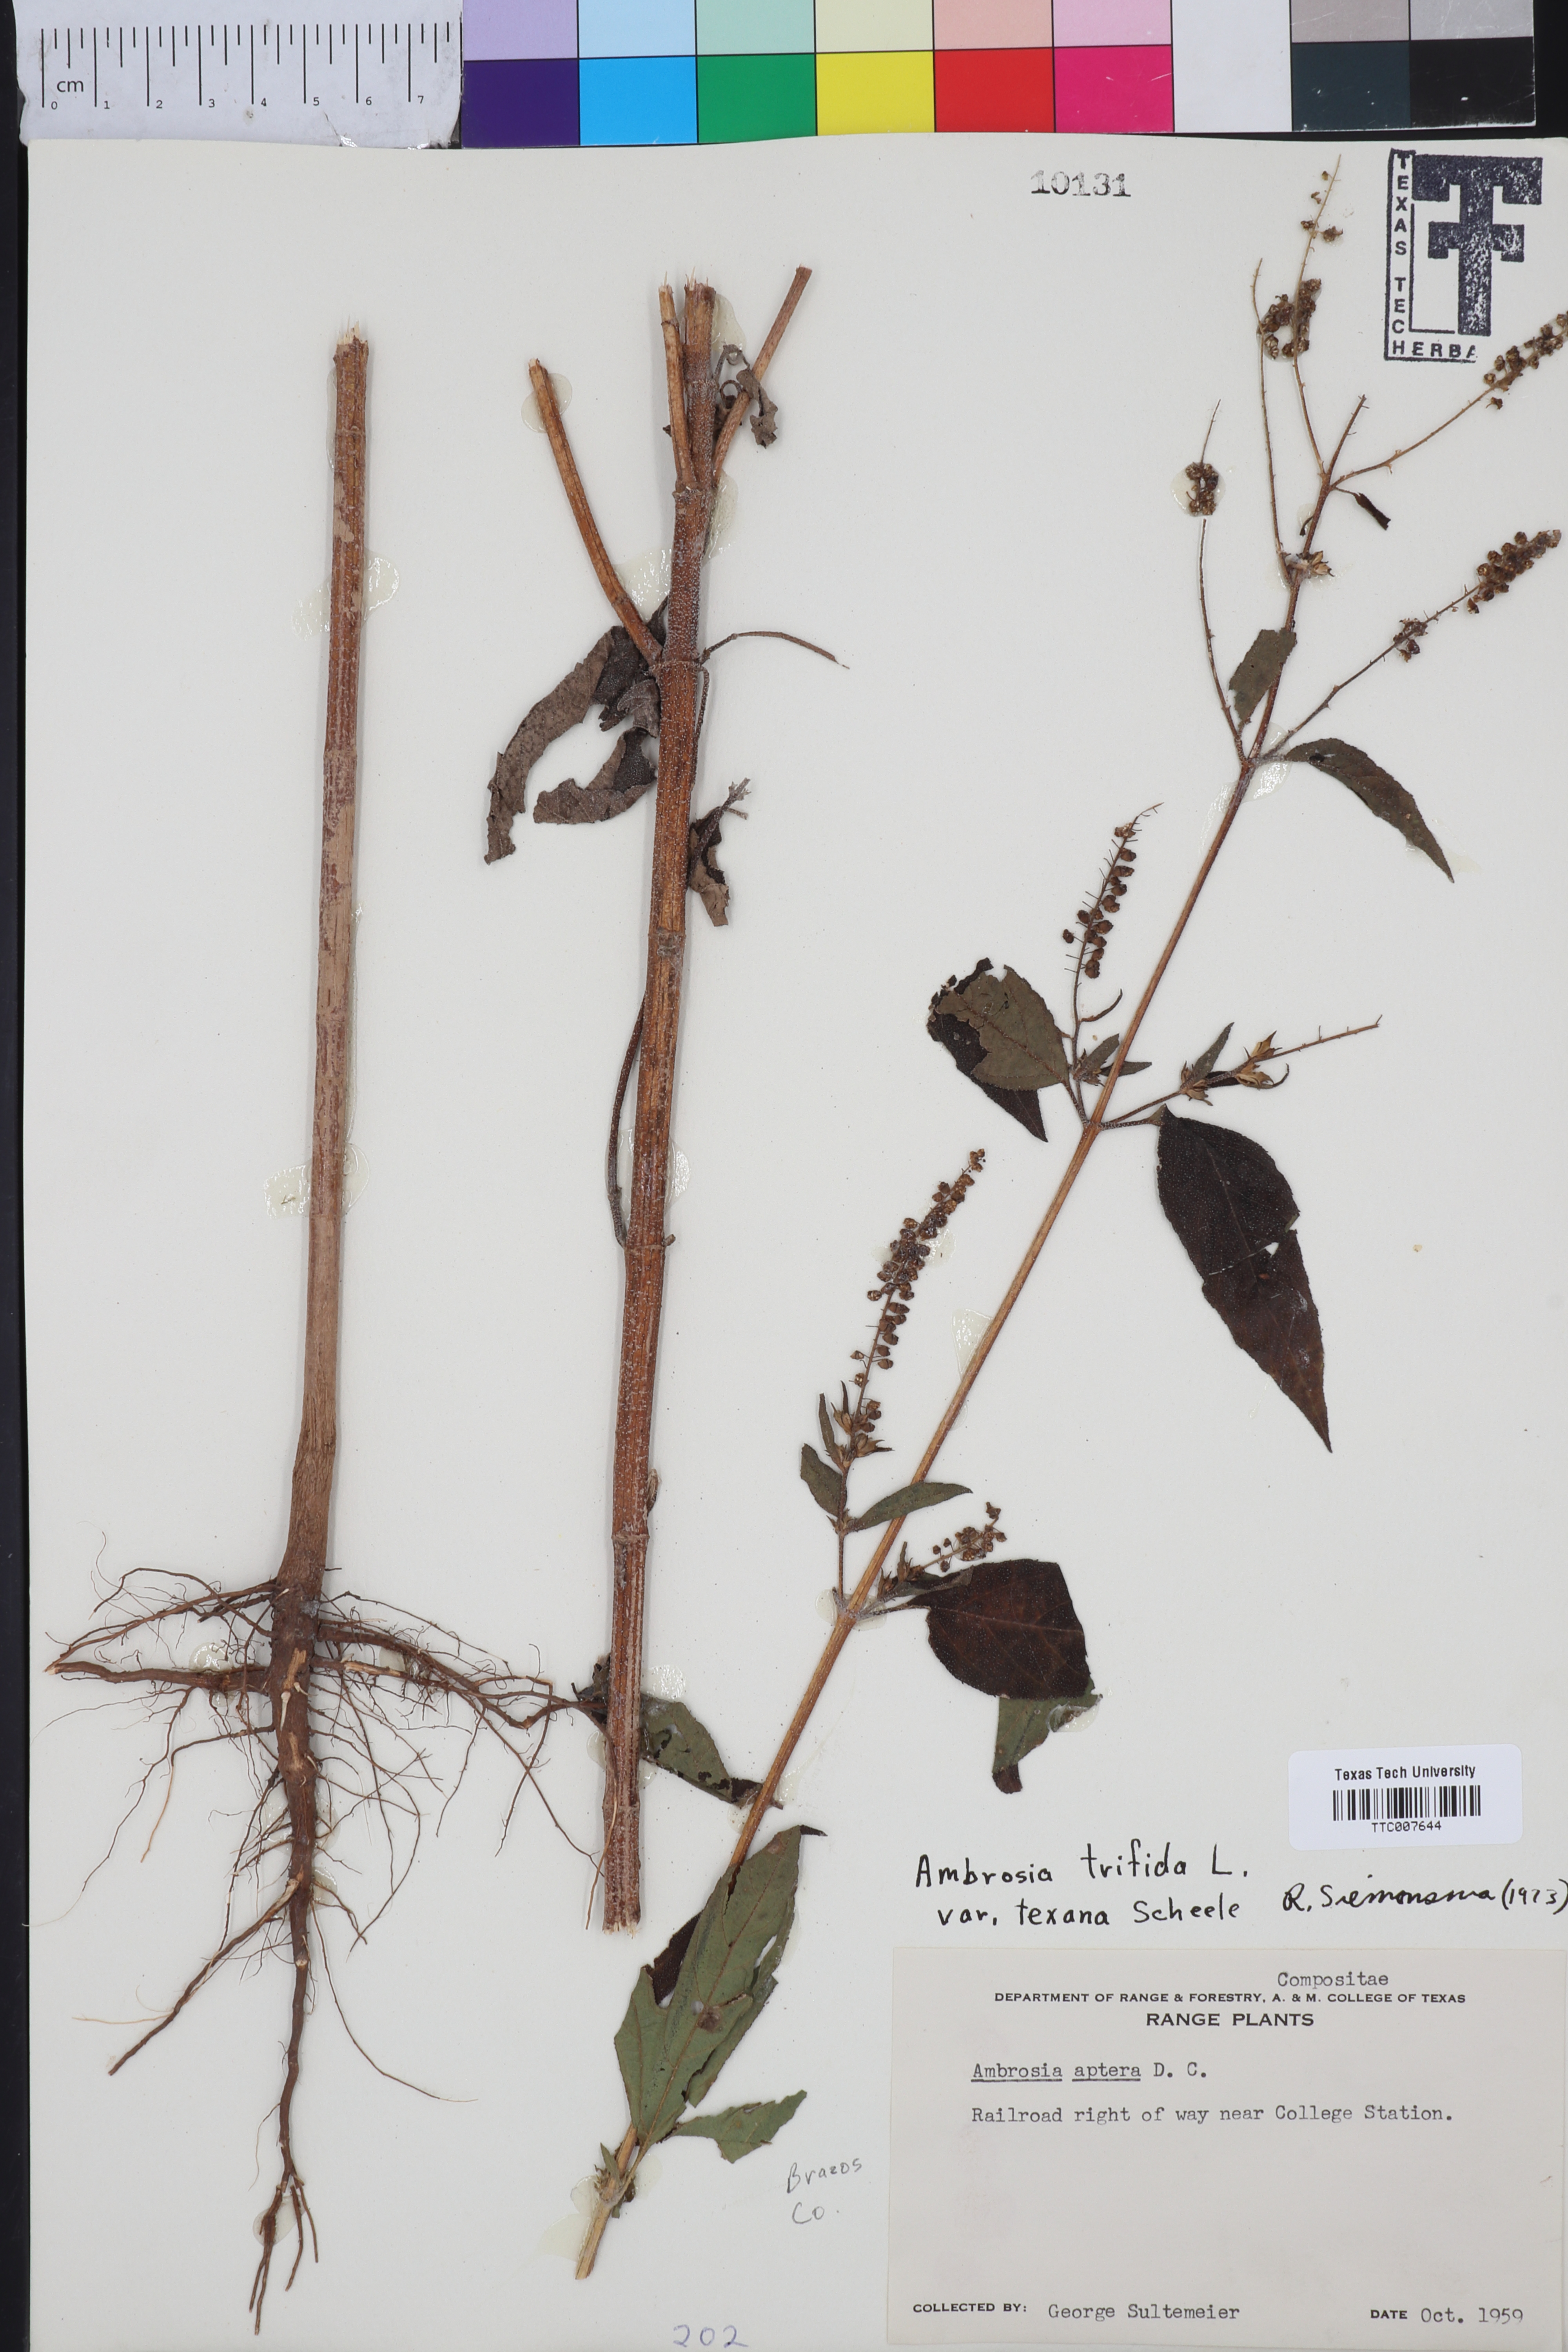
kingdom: Plantae
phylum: Tracheophyta
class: Magnoliopsida
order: Asterales
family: Asteraceae
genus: Ambrosia
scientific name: Ambrosia trifida
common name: Giant ragweed
